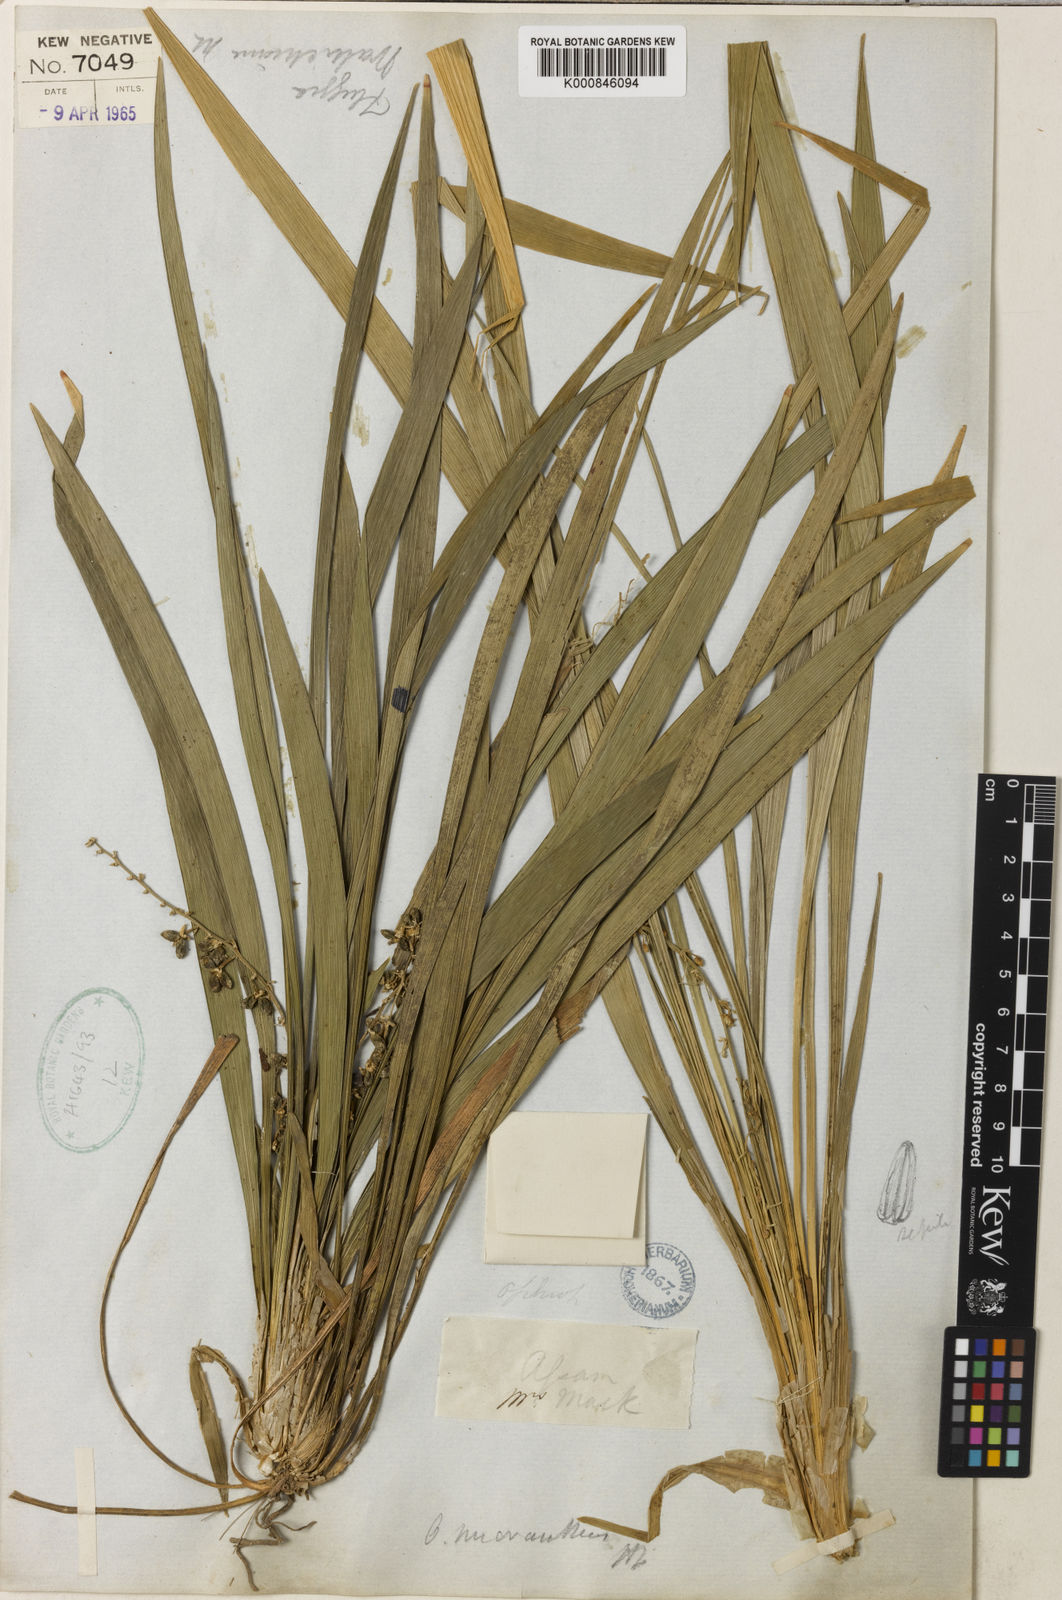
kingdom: Plantae
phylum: Tracheophyta
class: Liliopsida
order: Asparagales
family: Asparagaceae
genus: Ophiopogon
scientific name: Ophiopogon micranthus
